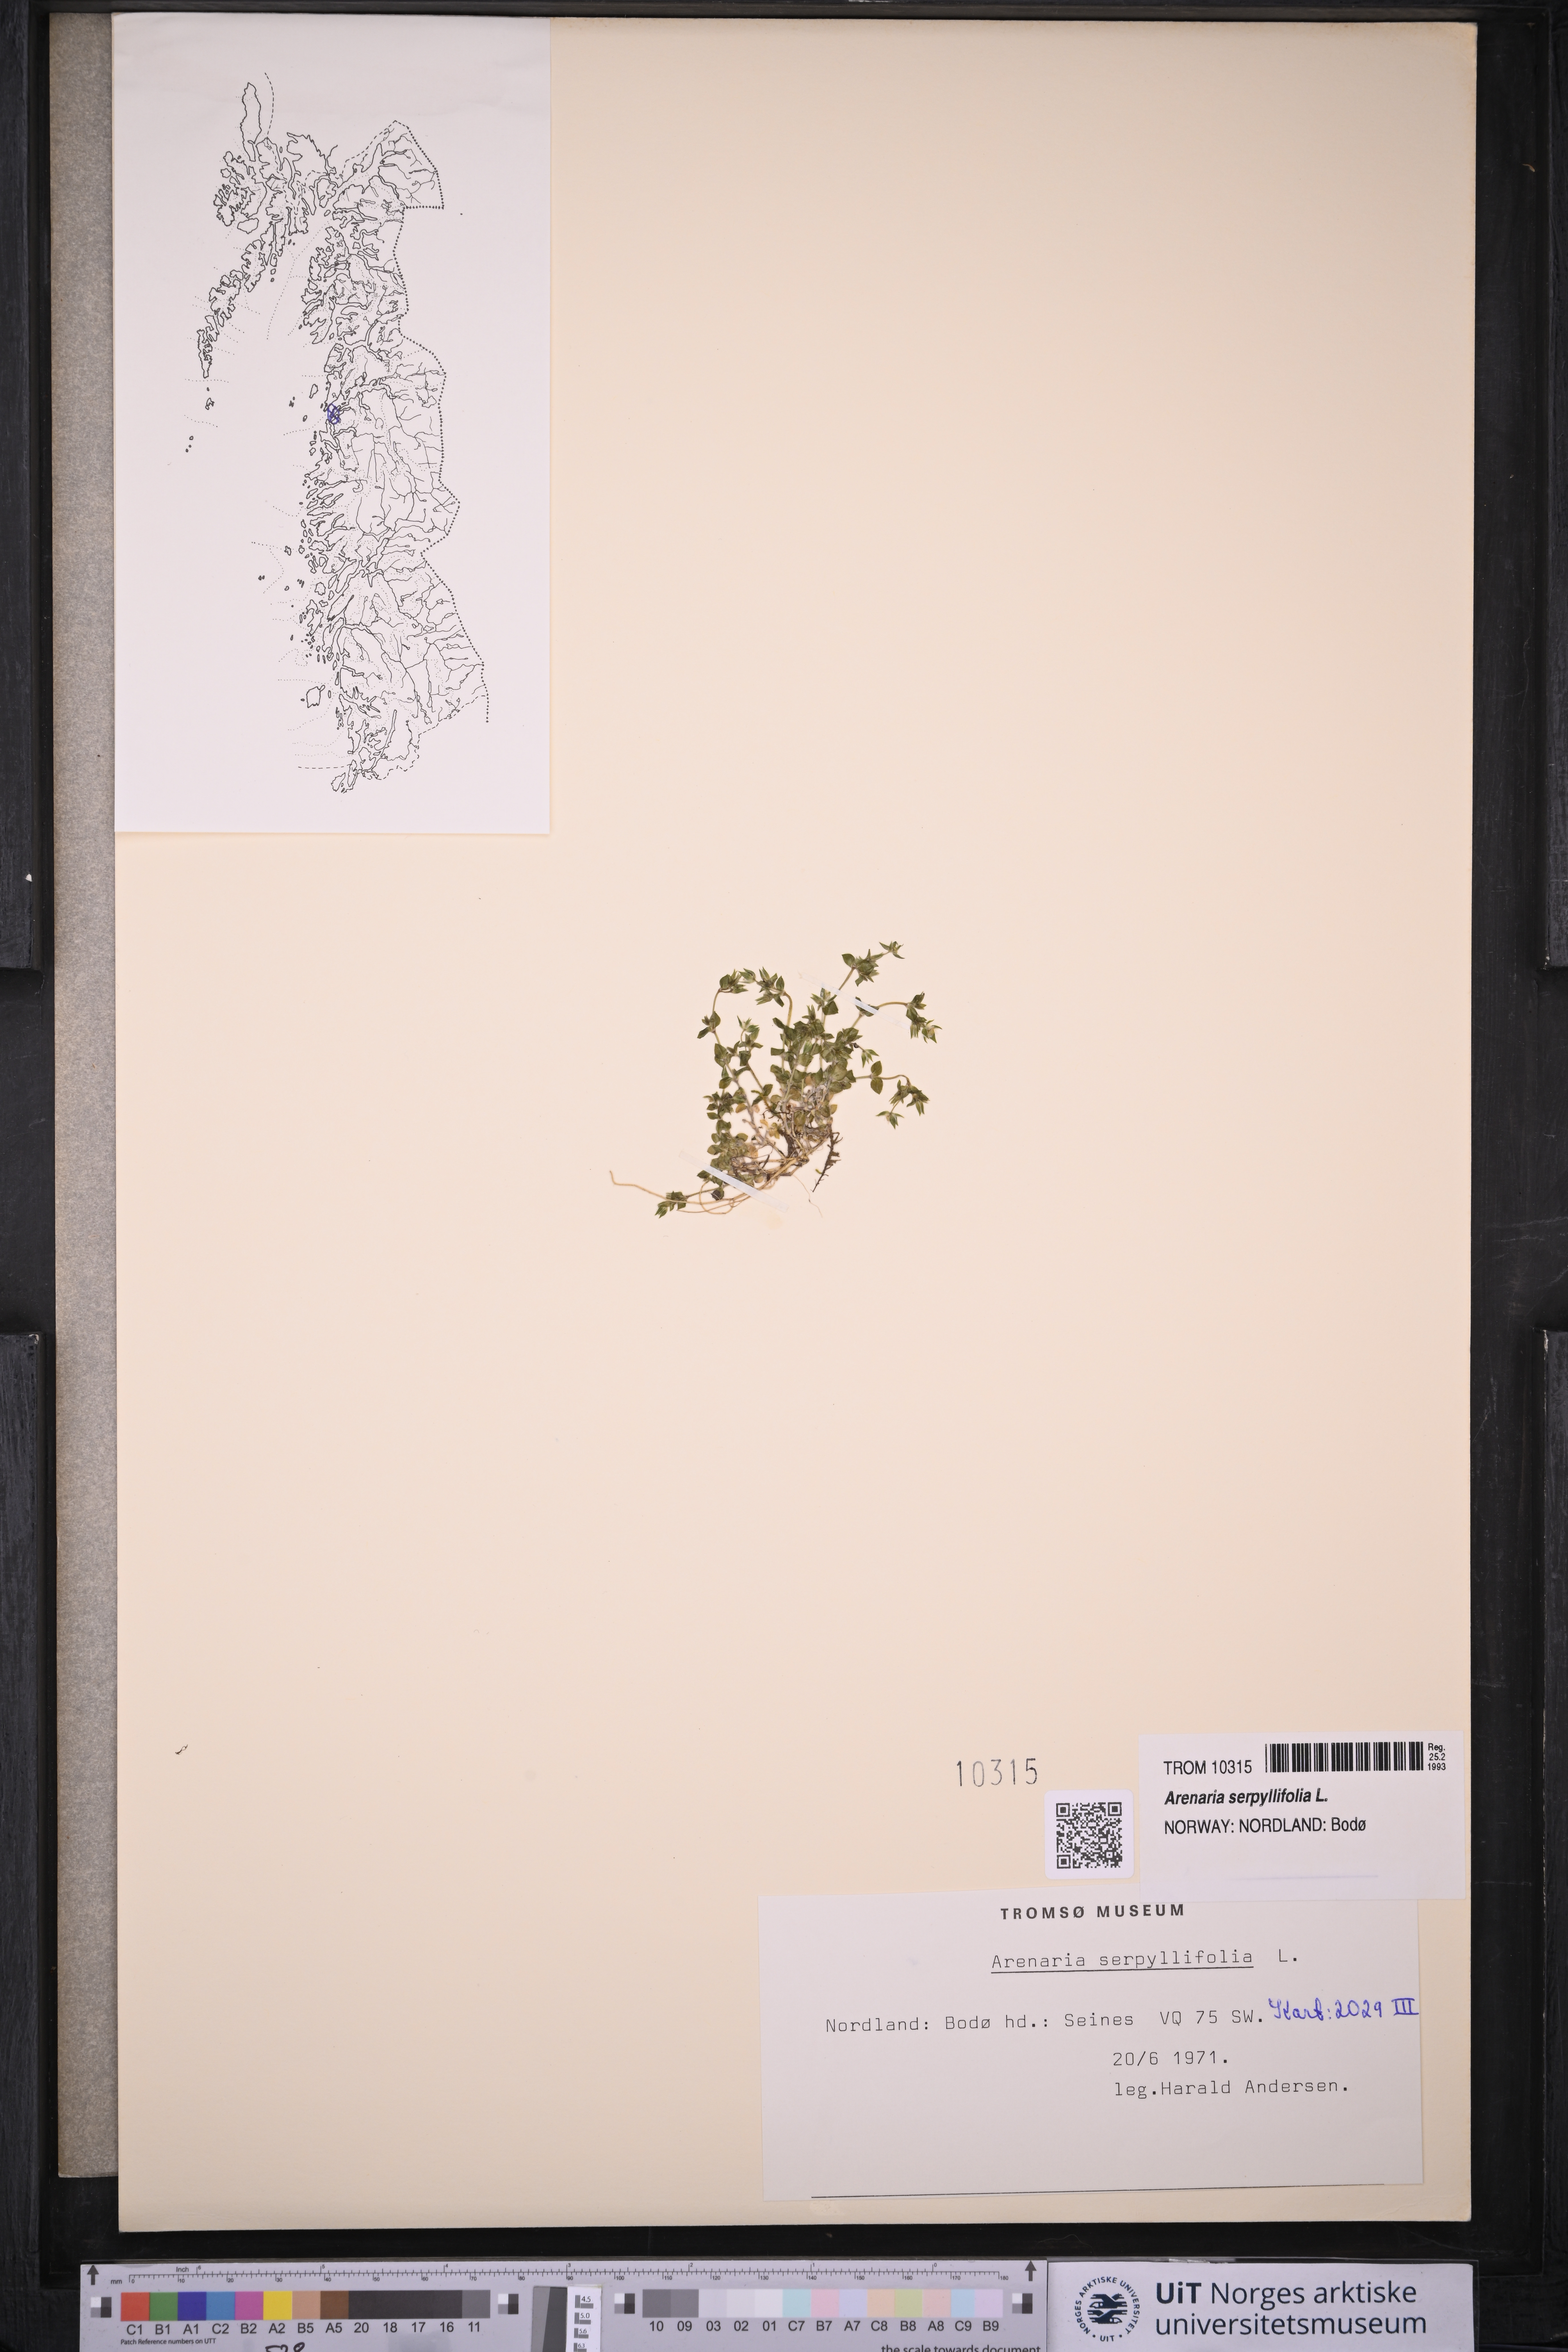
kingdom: Plantae
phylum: Tracheophyta
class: Magnoliopsida
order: Caryophyllales
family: Caryophyllaceae
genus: Arenaria
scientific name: Arenaria serpyllifolia
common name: Thyme-leaved sandwort
